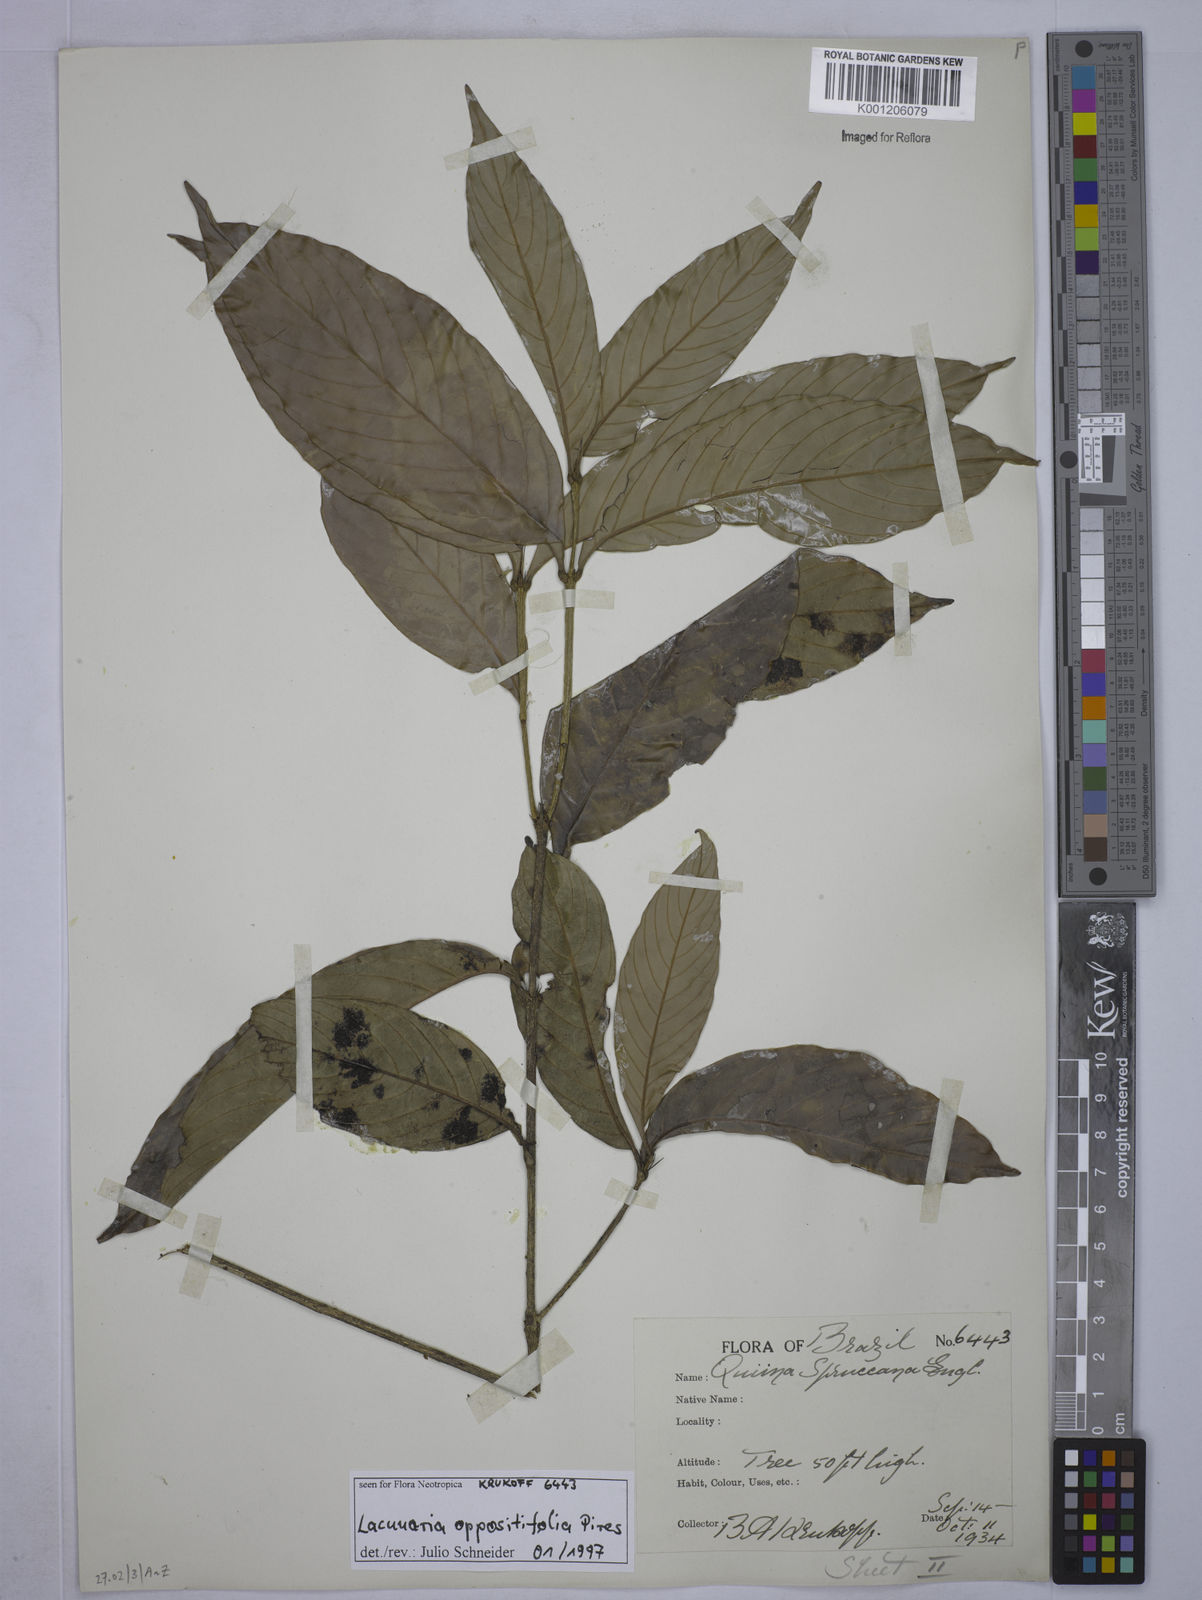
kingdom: Plantae
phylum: Tracheophyta
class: Magnoliopsida
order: Malpighiales
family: Quiinaceae
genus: Lacunaria
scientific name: Lacunaria oppositifolia
